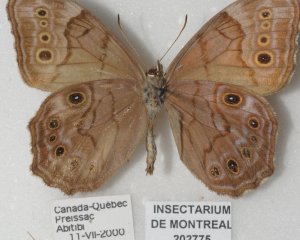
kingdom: Animalia
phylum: Arthropoda
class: Insecta
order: Lepidoptera
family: Nymphalidae
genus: Lethe
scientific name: Lethe anthedon
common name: Northern Pearly-Eye
